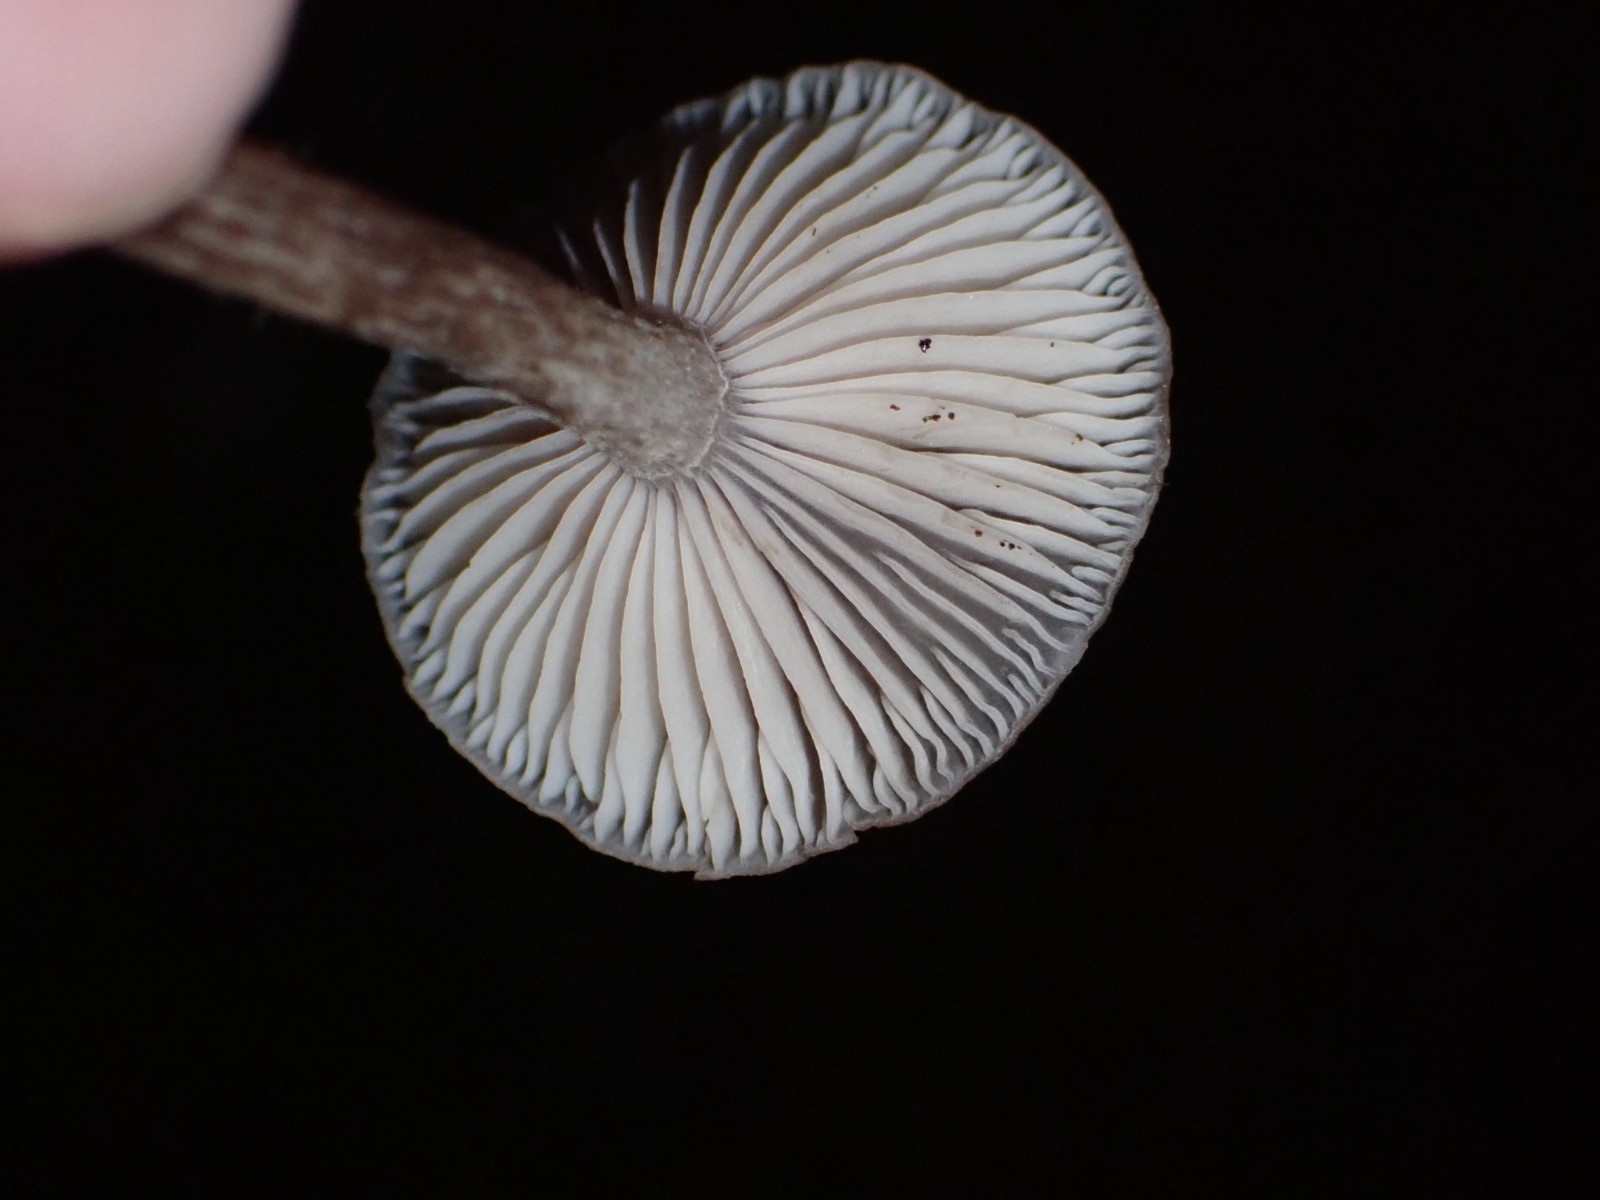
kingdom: Fungi
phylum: Basidiomycota
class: Agaricomycetes
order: Agaricales
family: Pseudoclitocybaceae
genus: Pseudoclitocybe
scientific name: Pseudoclitocybe cyathiformis
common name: almindelig bægertragthat
